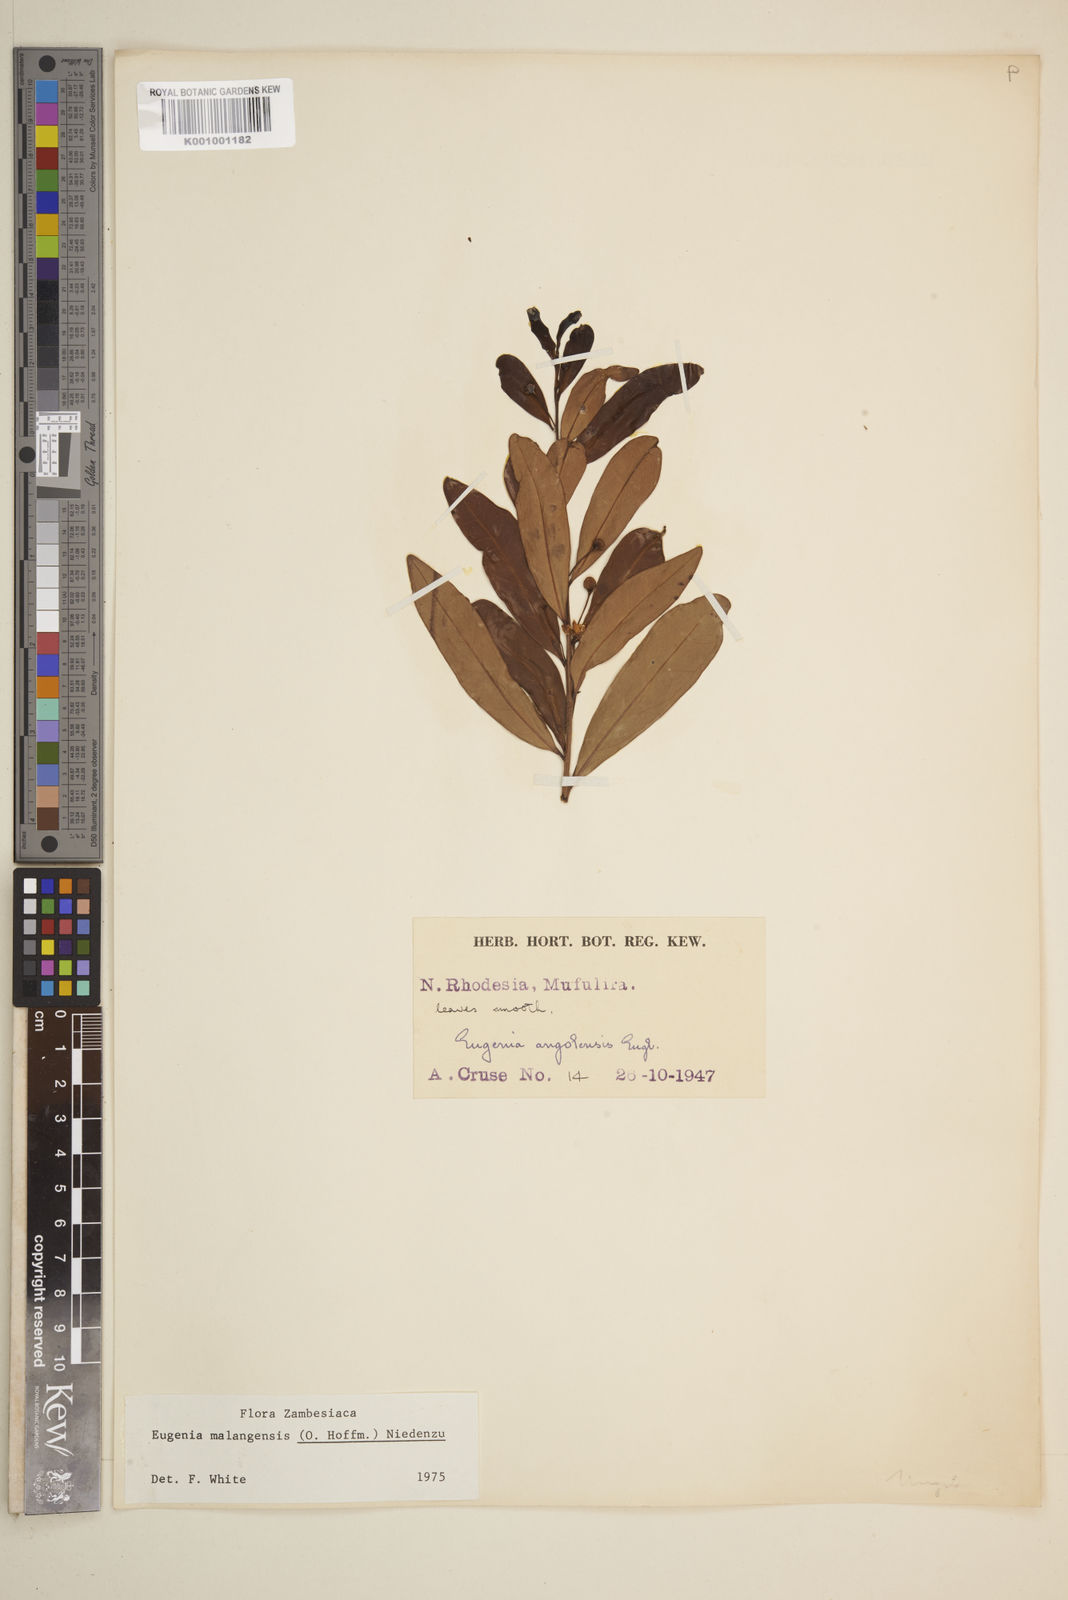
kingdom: Plantae
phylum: Tracheophyta
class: Magnoliopsida
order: Myrtales
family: Myrtaceae
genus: Eugenia
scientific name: Eugenia malangensis
